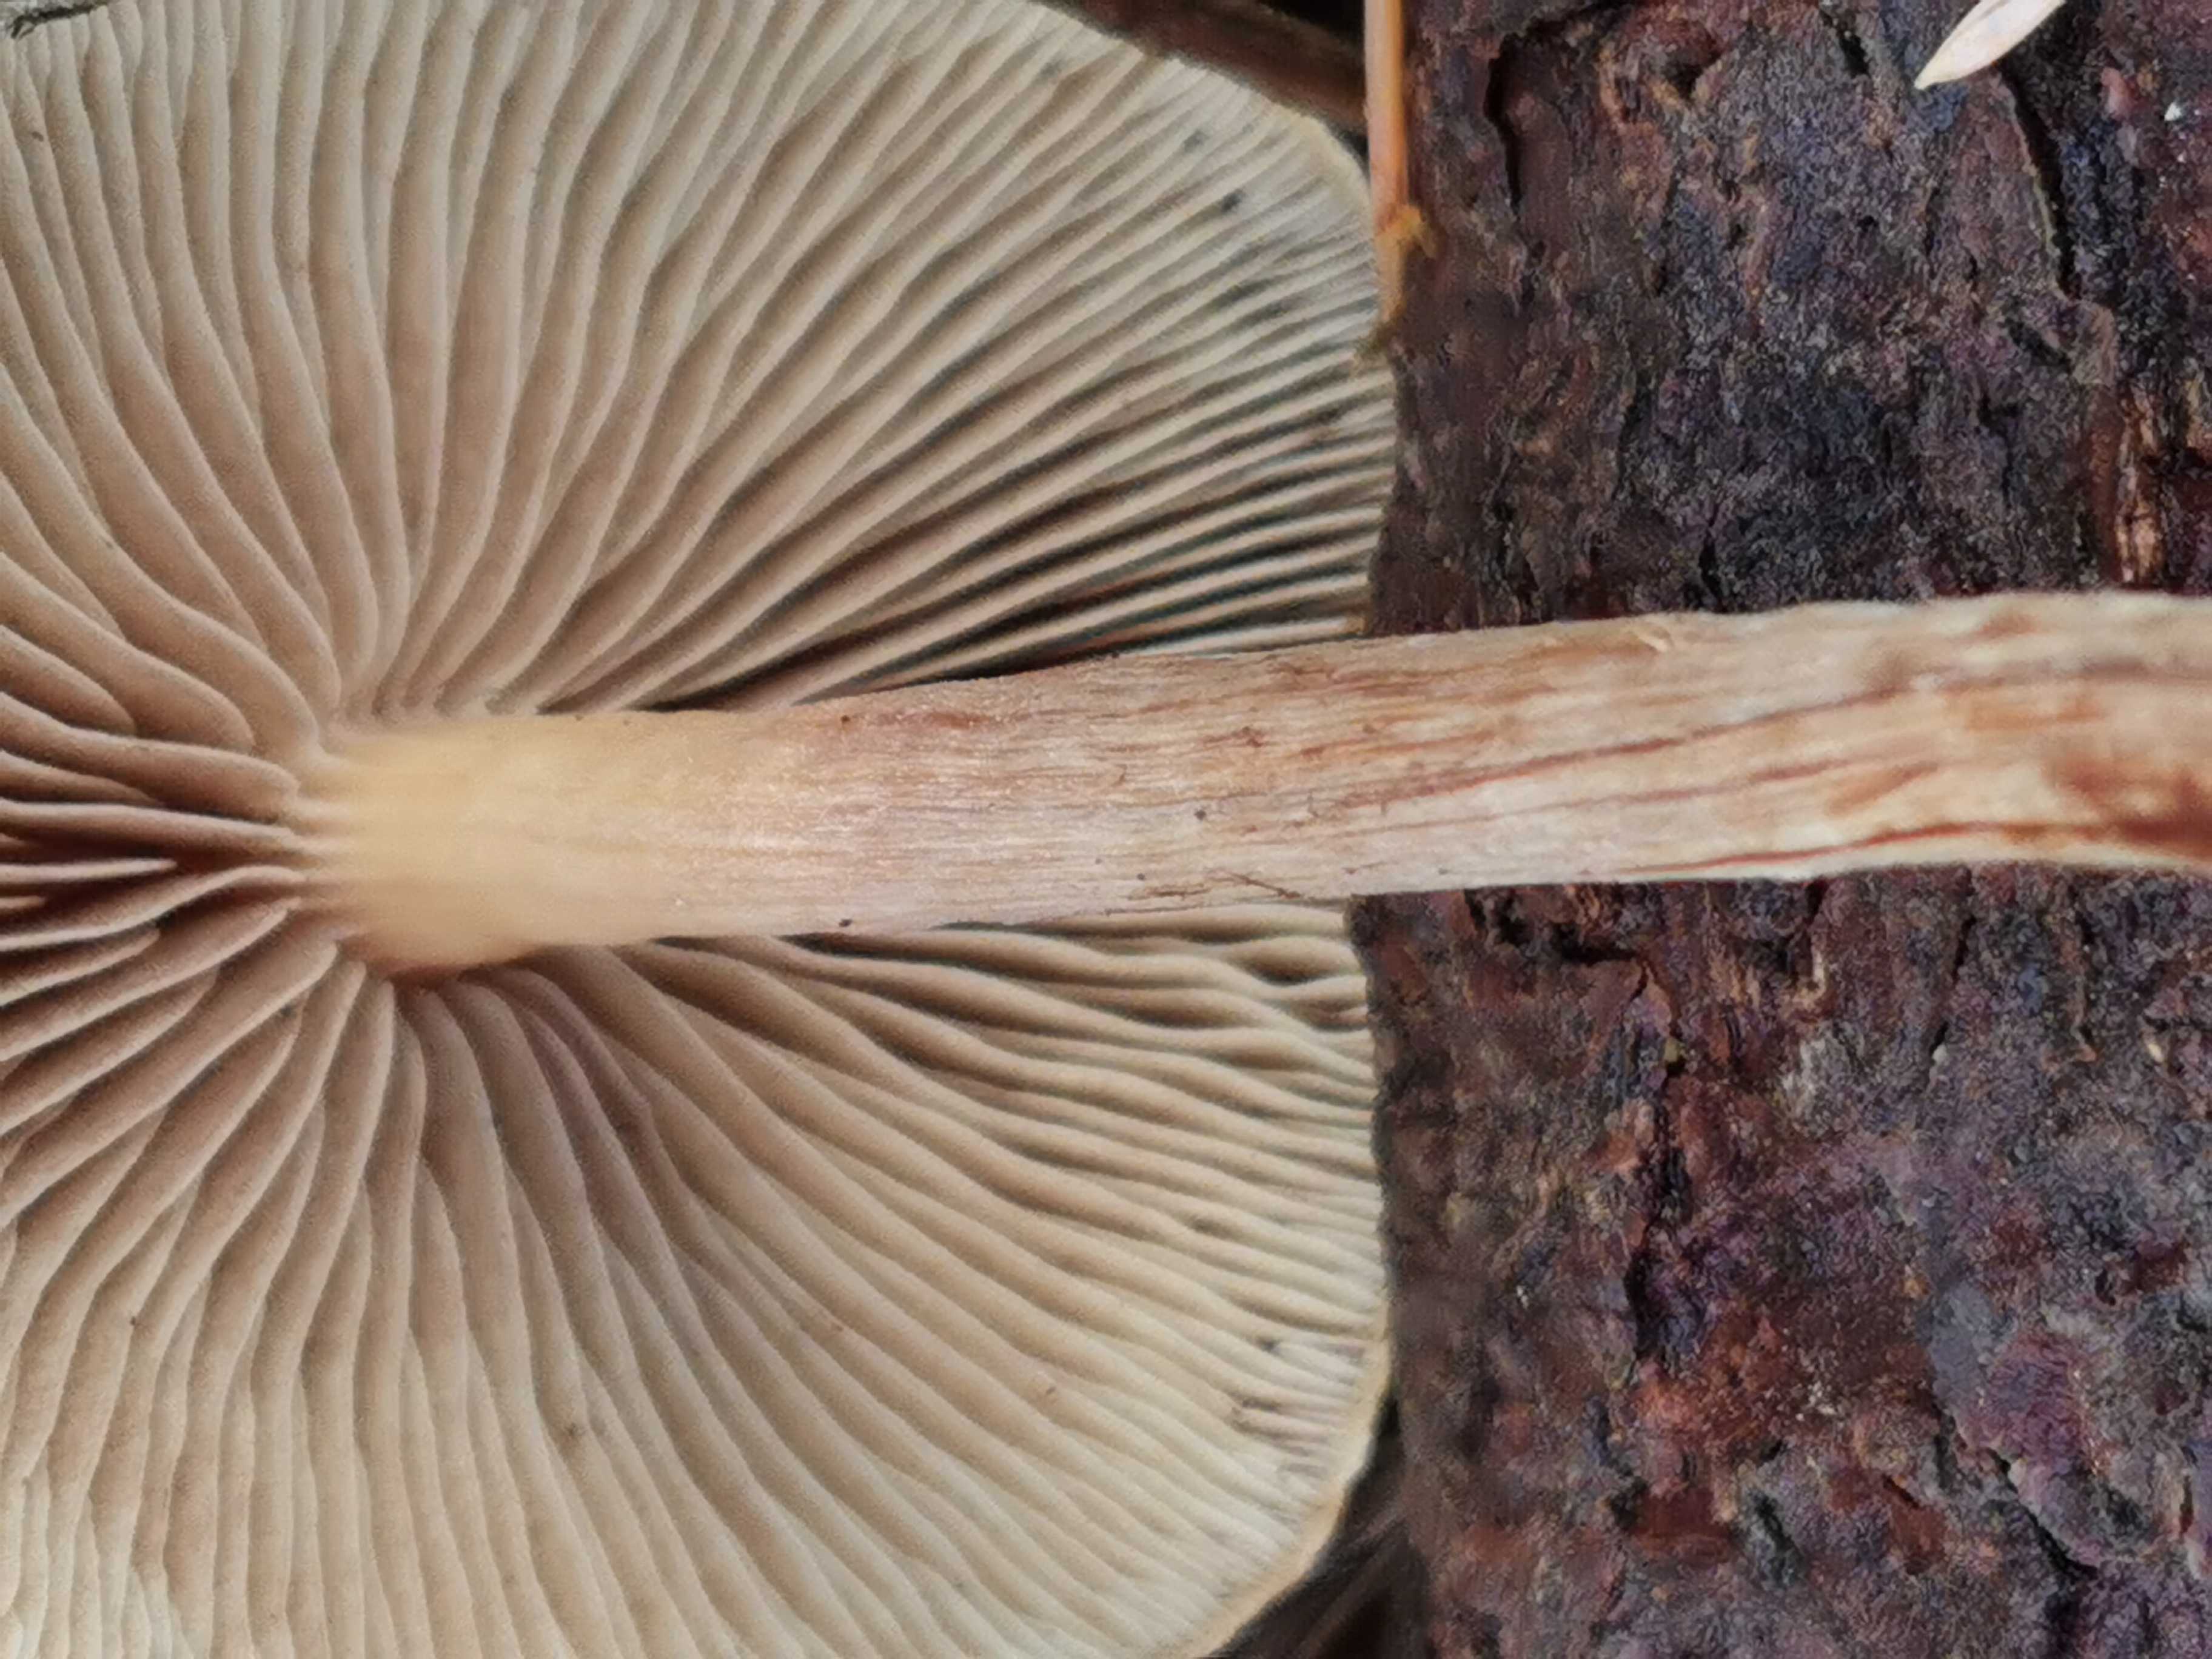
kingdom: Fungi
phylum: Basidiomycota
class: Agaricomycetes
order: Agaricales
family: Strophariaceae
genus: Hypholoma
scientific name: Hypholoma marginatum
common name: enlig svovlhat
